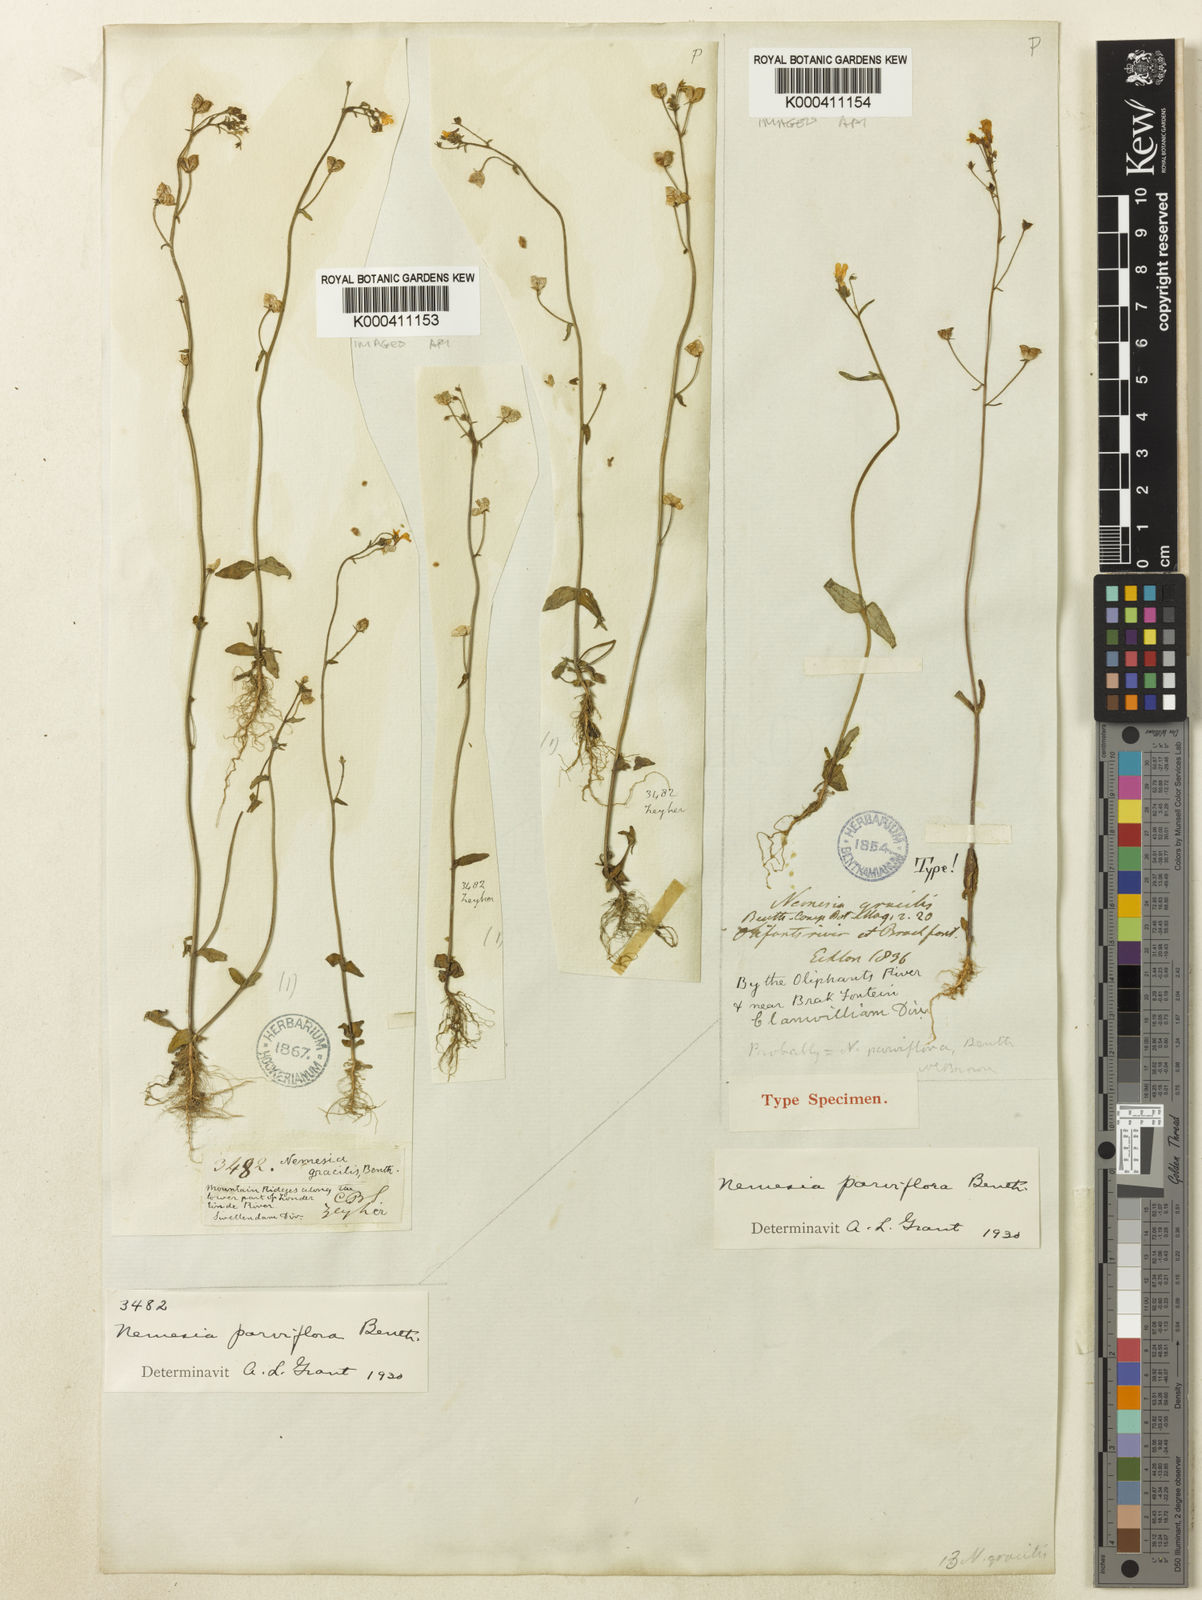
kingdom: Plantae
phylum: Tracheophyta
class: Magnoliopsida
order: Lamiales
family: Scrophulariaceae
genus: Nemesia
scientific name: Nemesia gracilis
